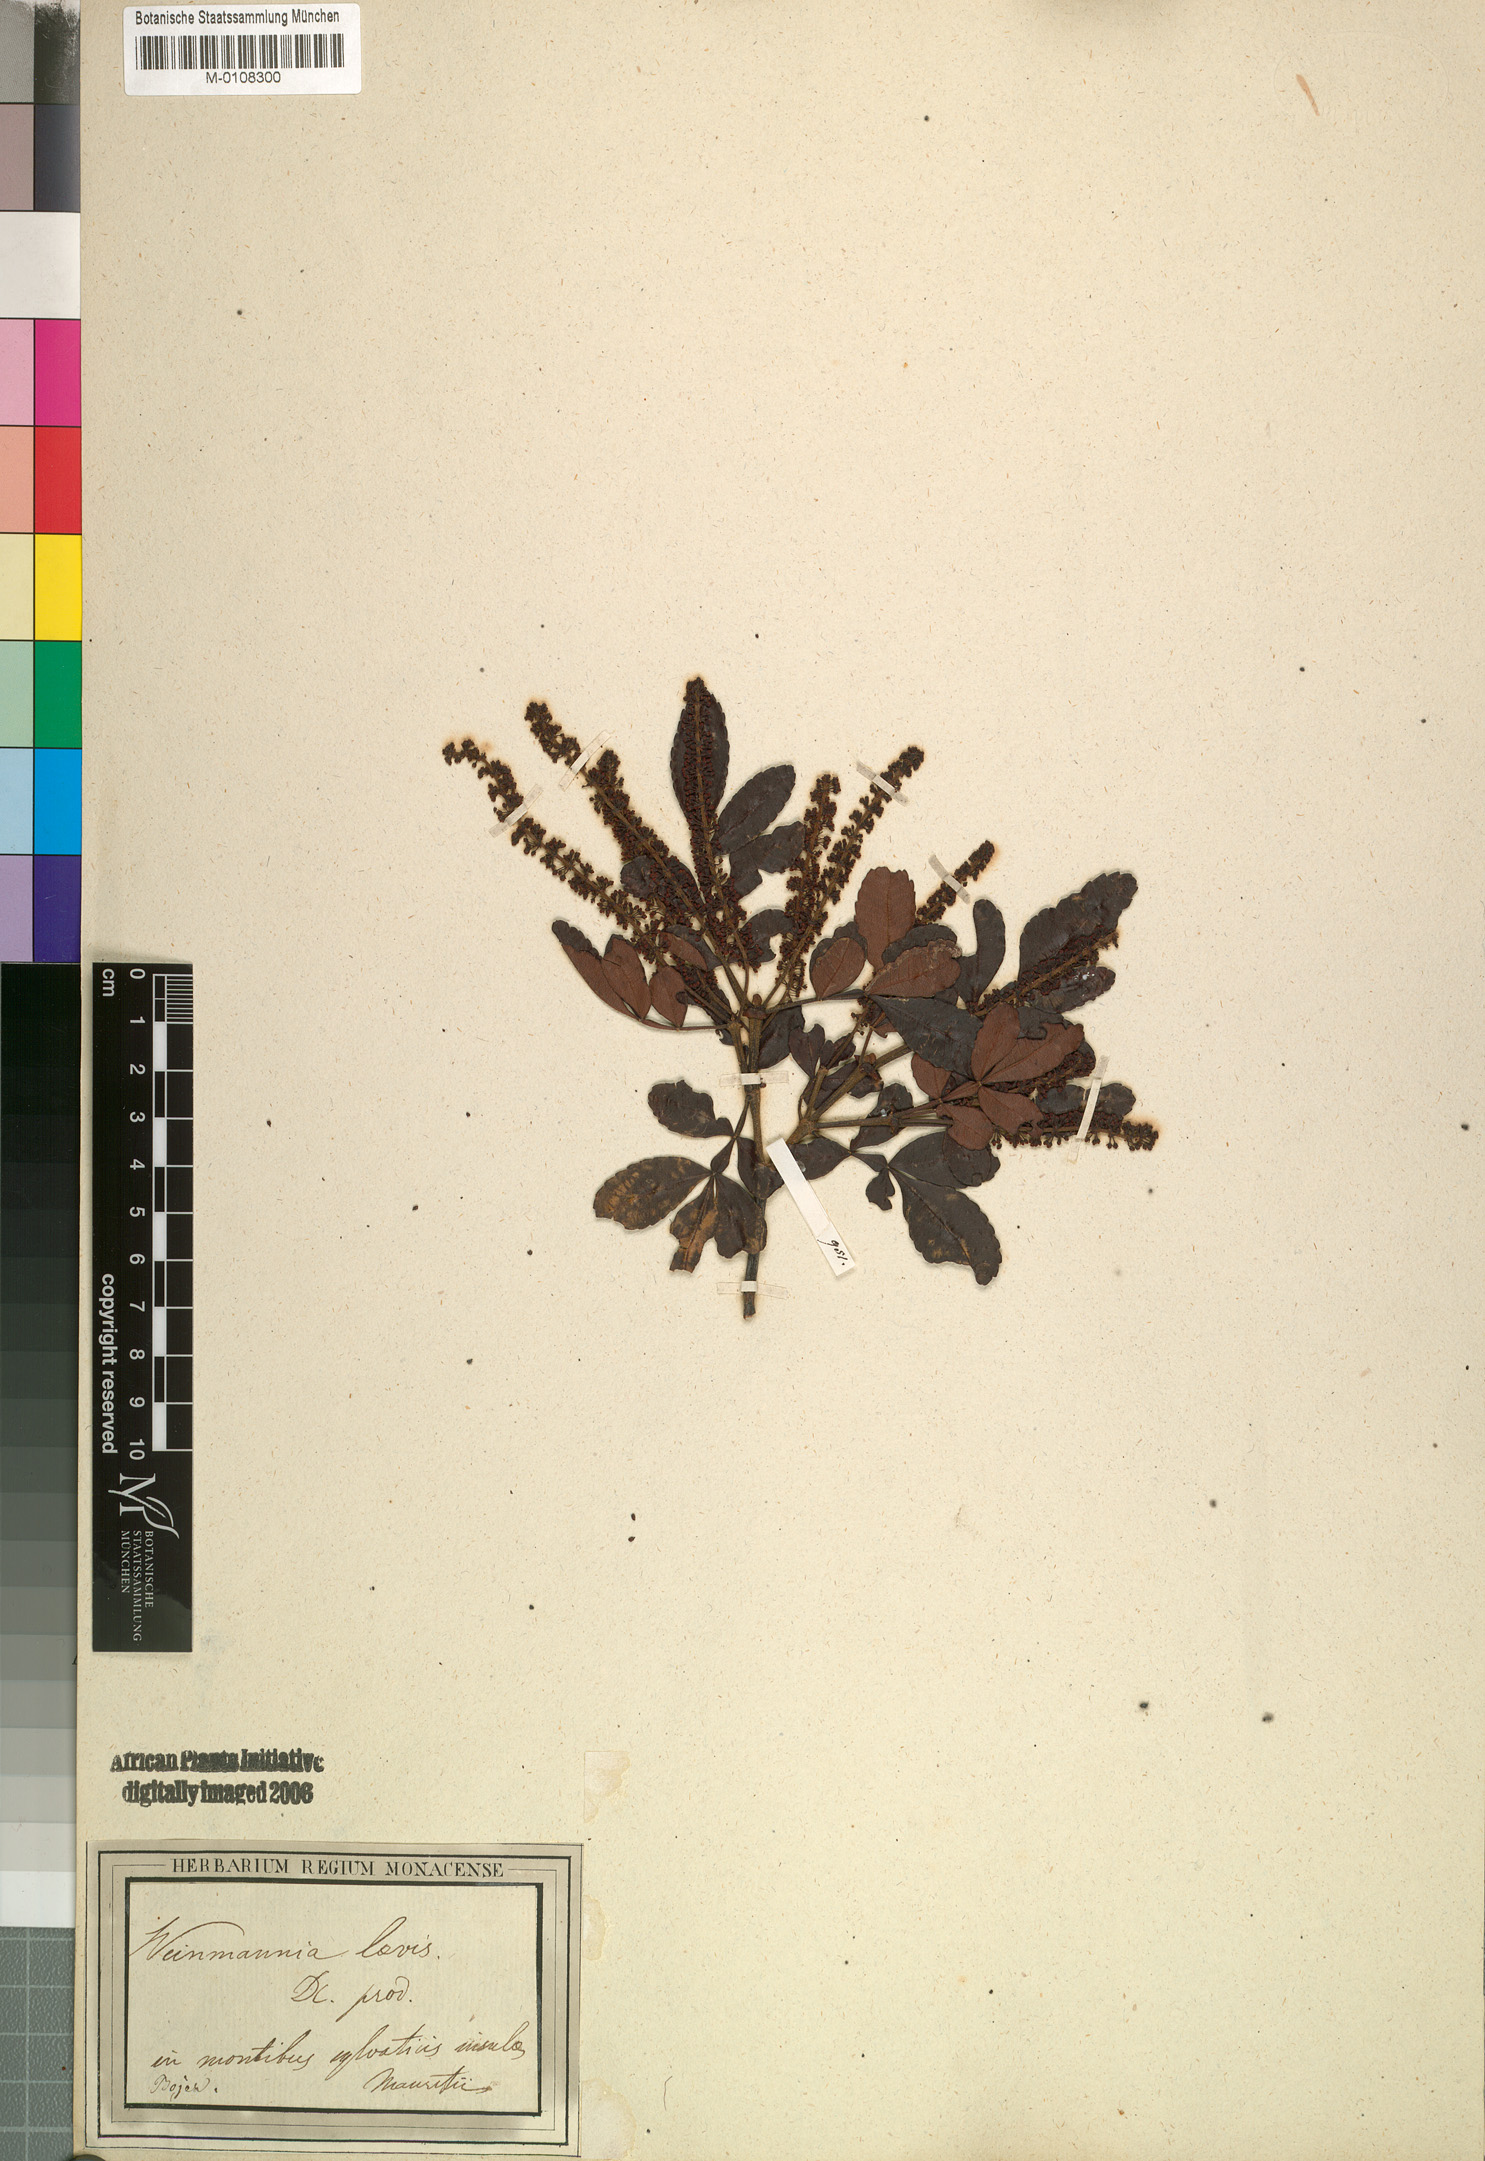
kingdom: Plantae
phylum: Tracheophyta
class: Magnoliopsida
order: Oxalidales
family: Cunoniaceae
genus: Weinmannia
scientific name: Weinmannia
